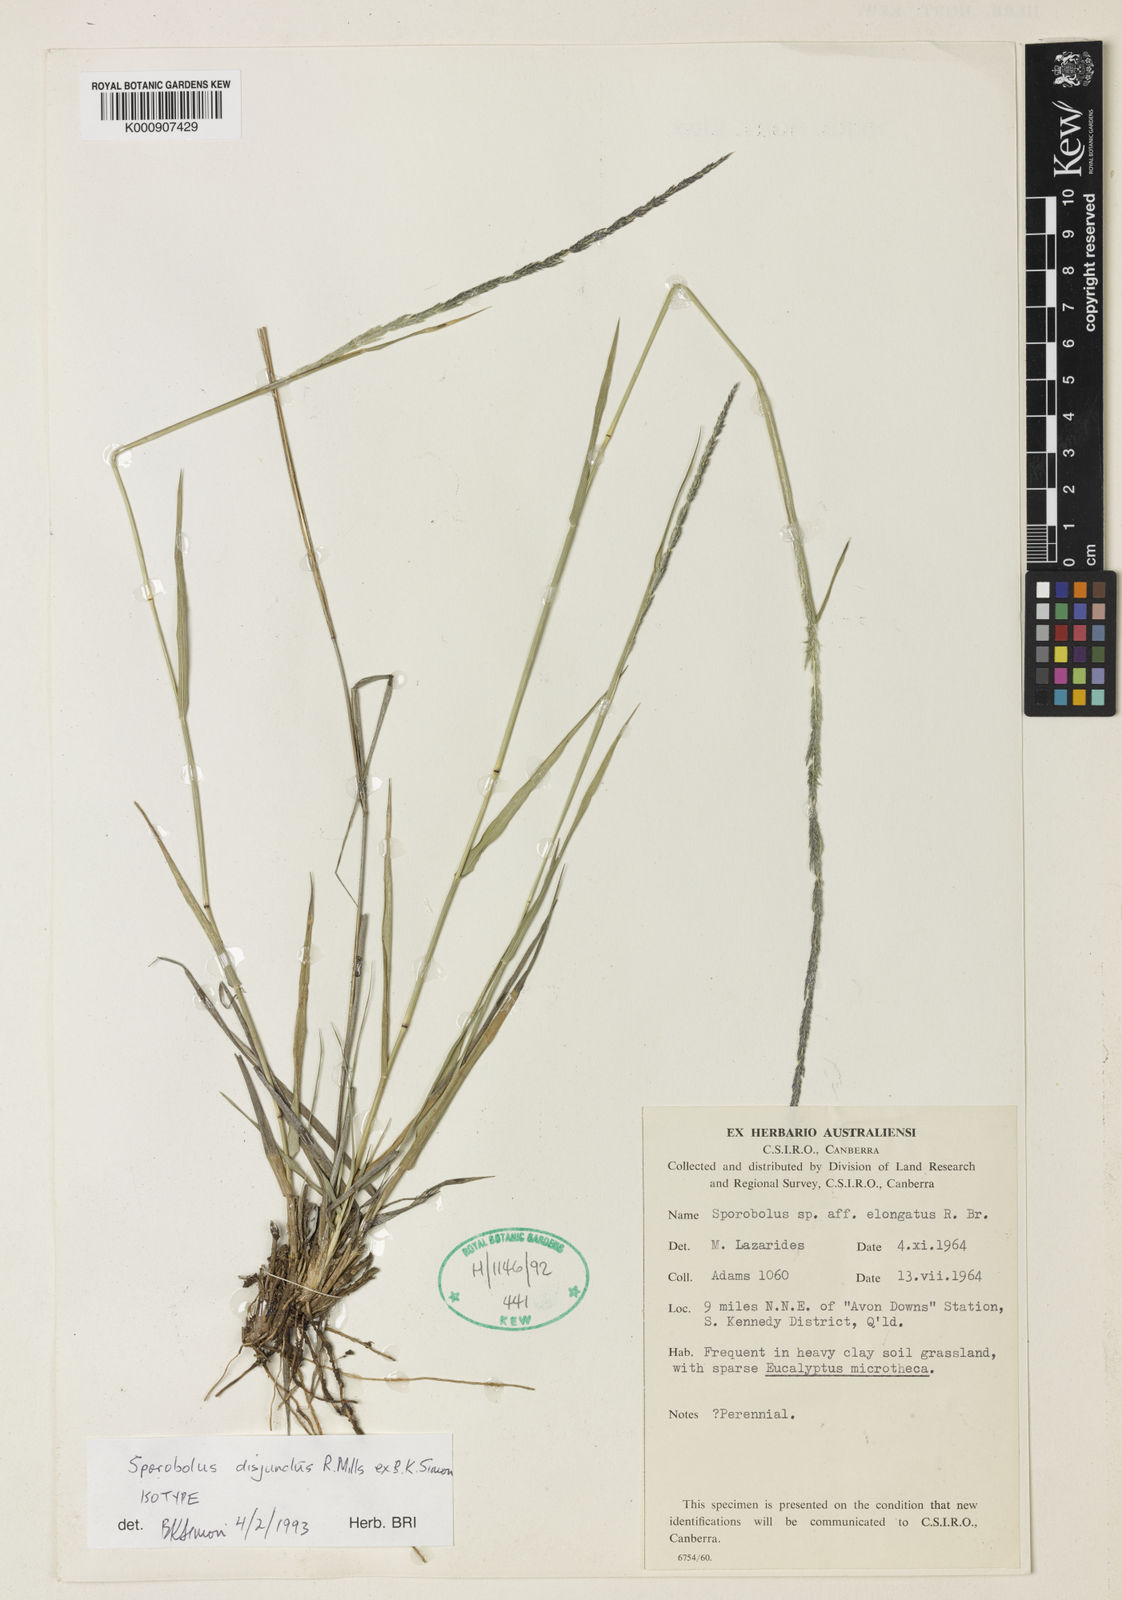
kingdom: Plantae
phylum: Tracheophyta
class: Liliopsida
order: Poales
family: Poaceae
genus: Sporobolus
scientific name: Sporobolus disjunctus
